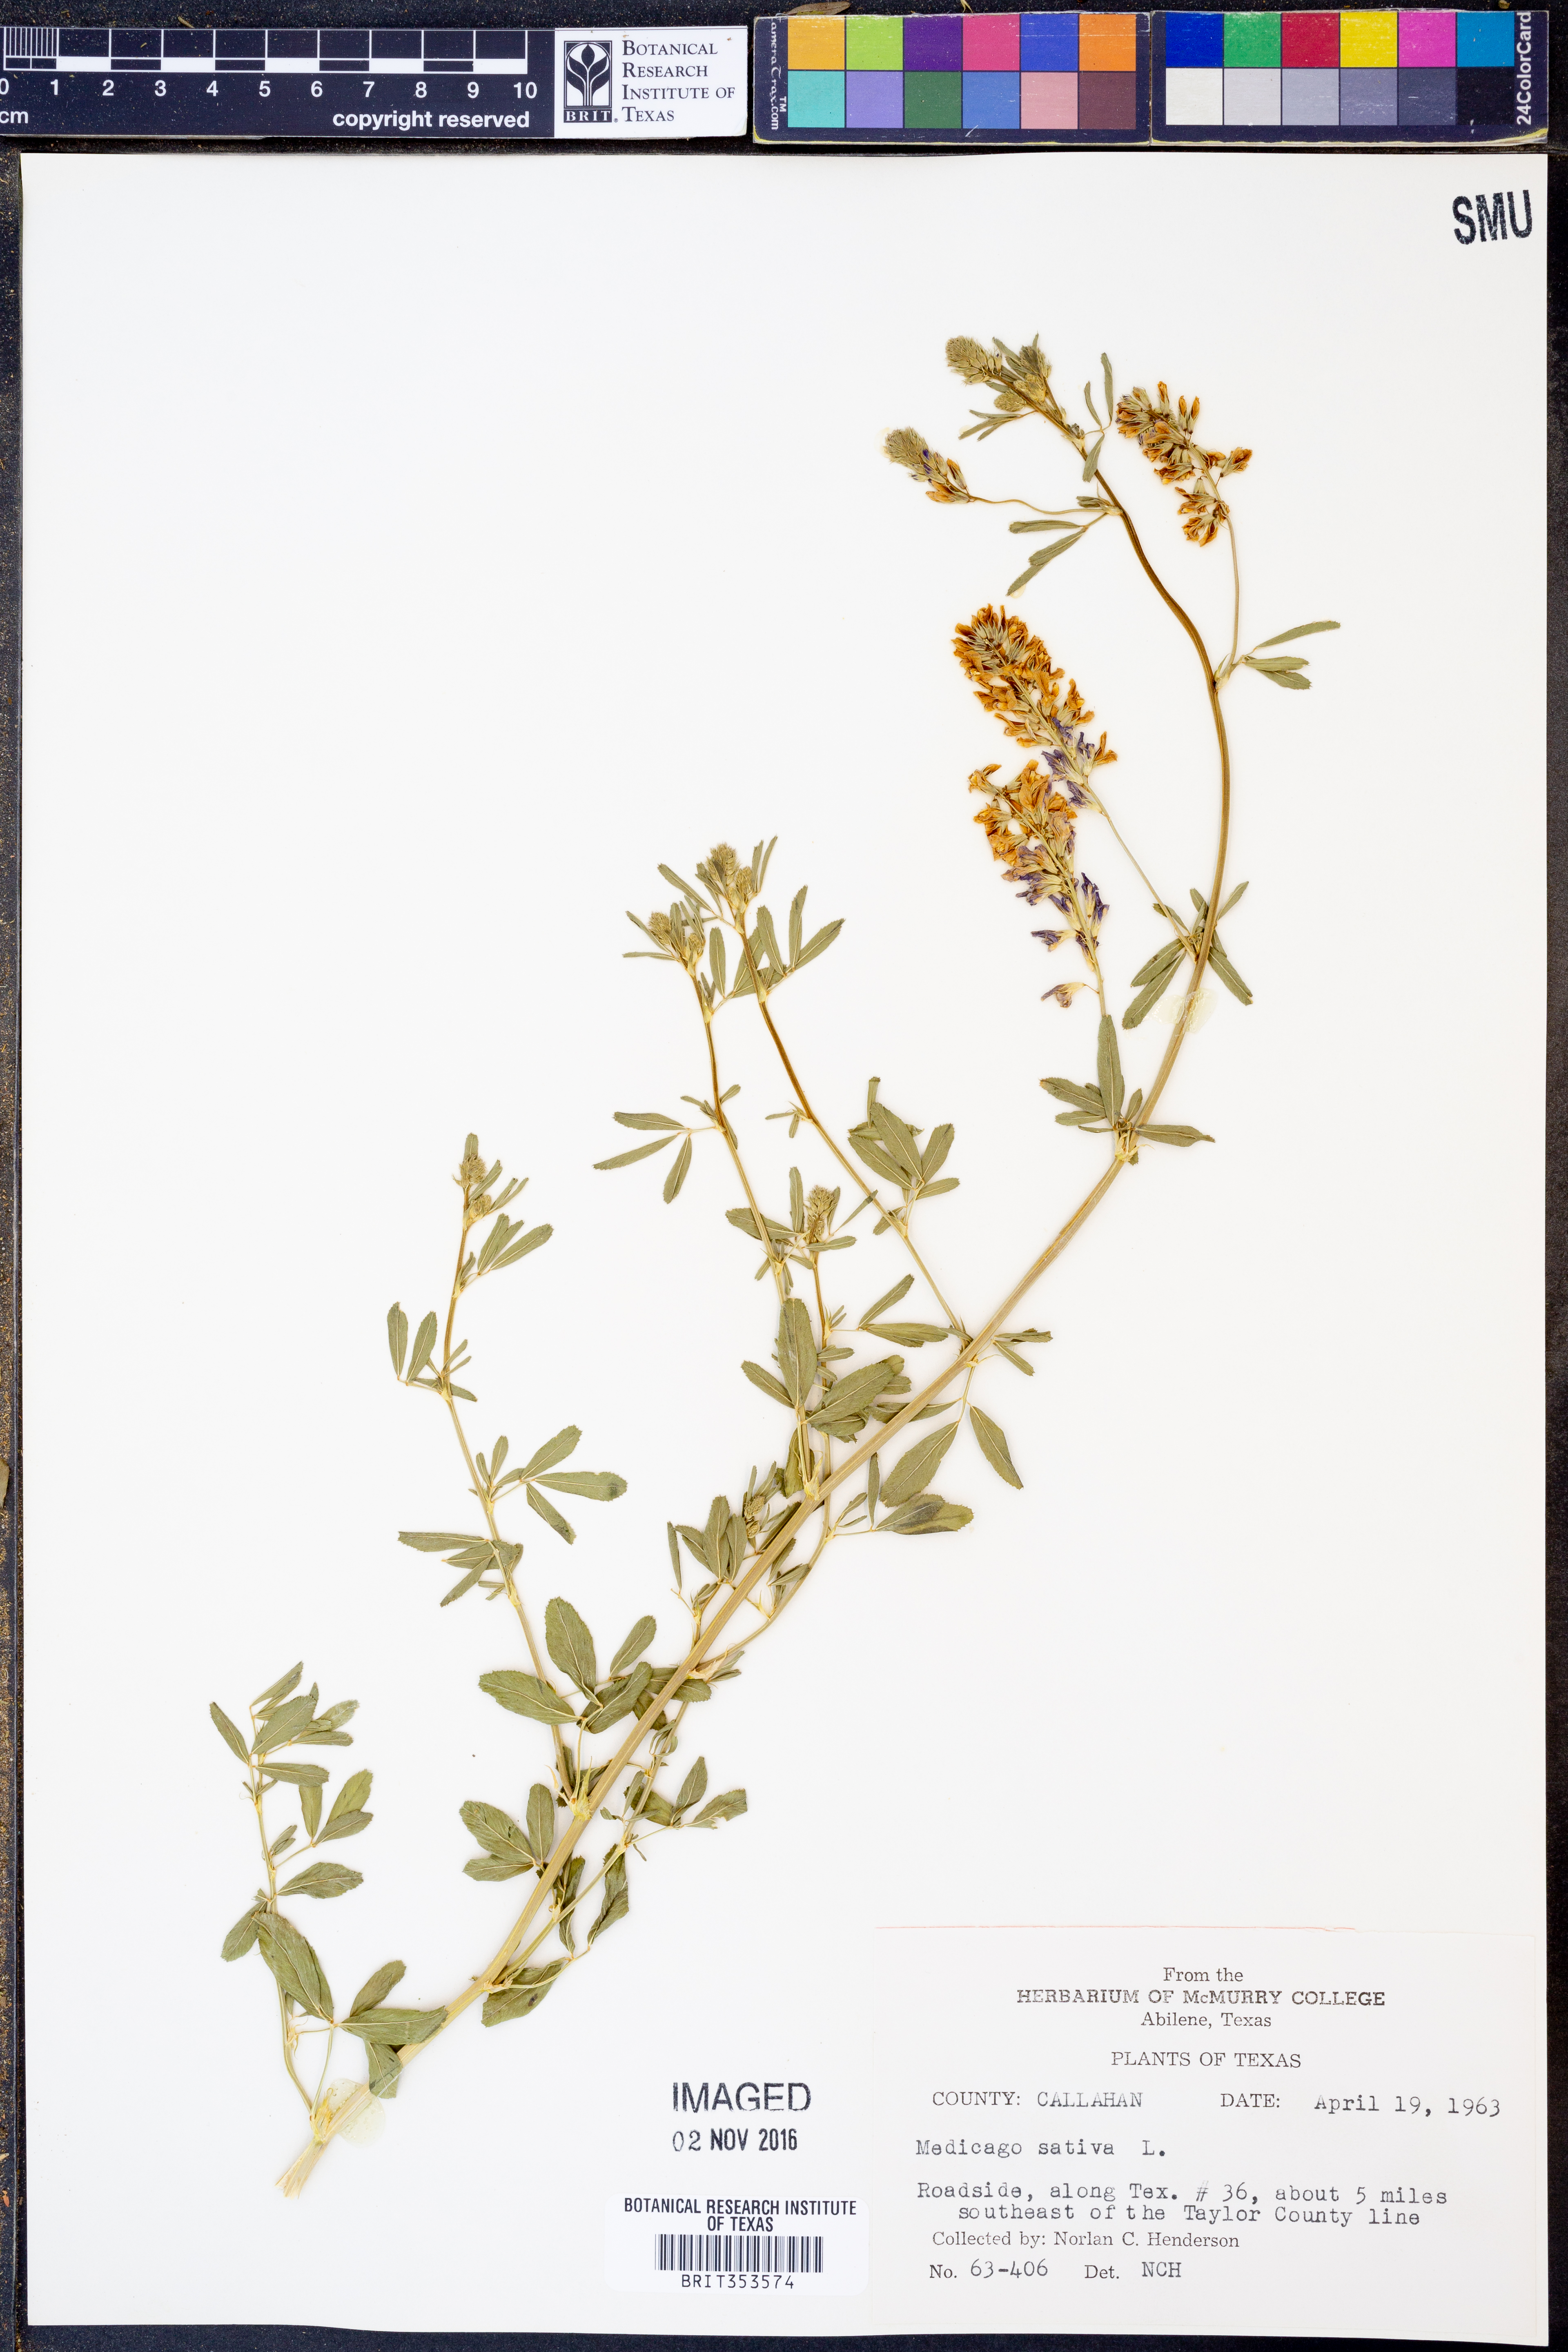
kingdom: Plantae
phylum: Tracheophyta
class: Magnoliopsida
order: Fabales
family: Fabaceae
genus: Medicago
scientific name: Medicago sativa
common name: Alfalfa
